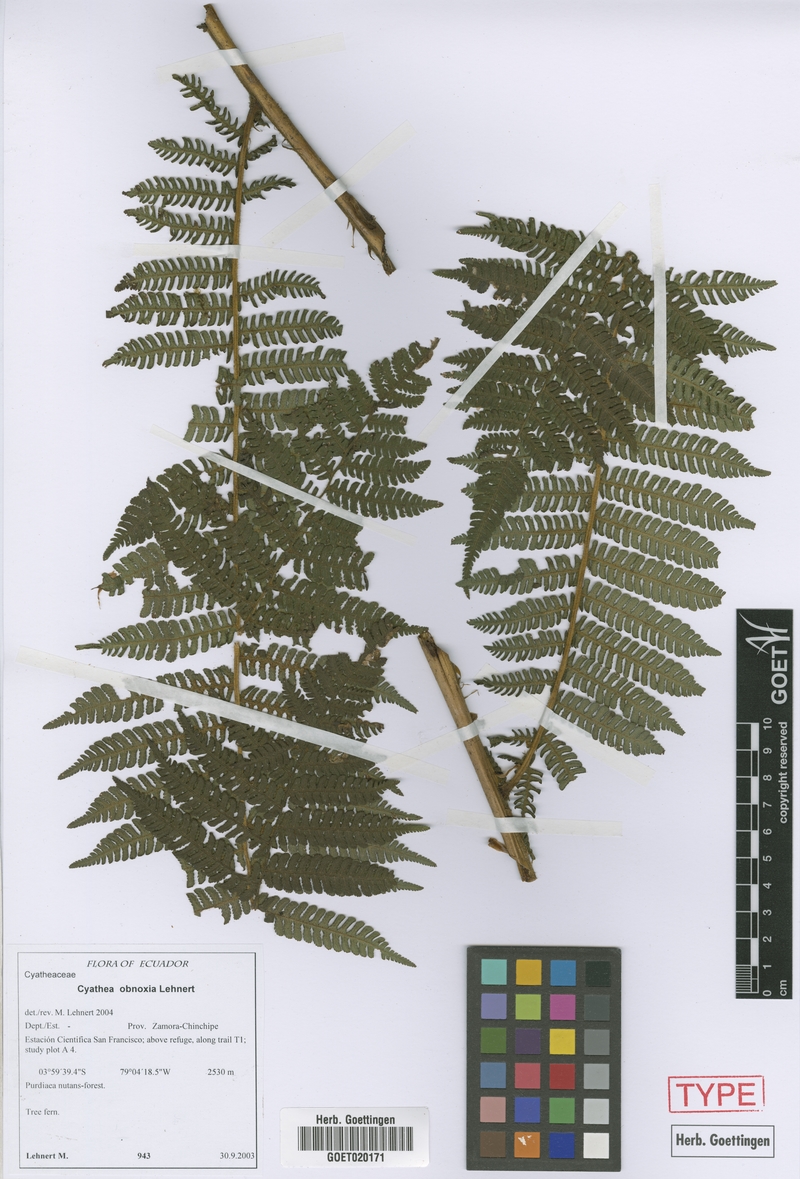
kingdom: Plantae
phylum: Tracheophyta
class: Polypodiopsida
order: Cyatheales
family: Cyatheaceae
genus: Cyathea
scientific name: Cyathea obnoxia
